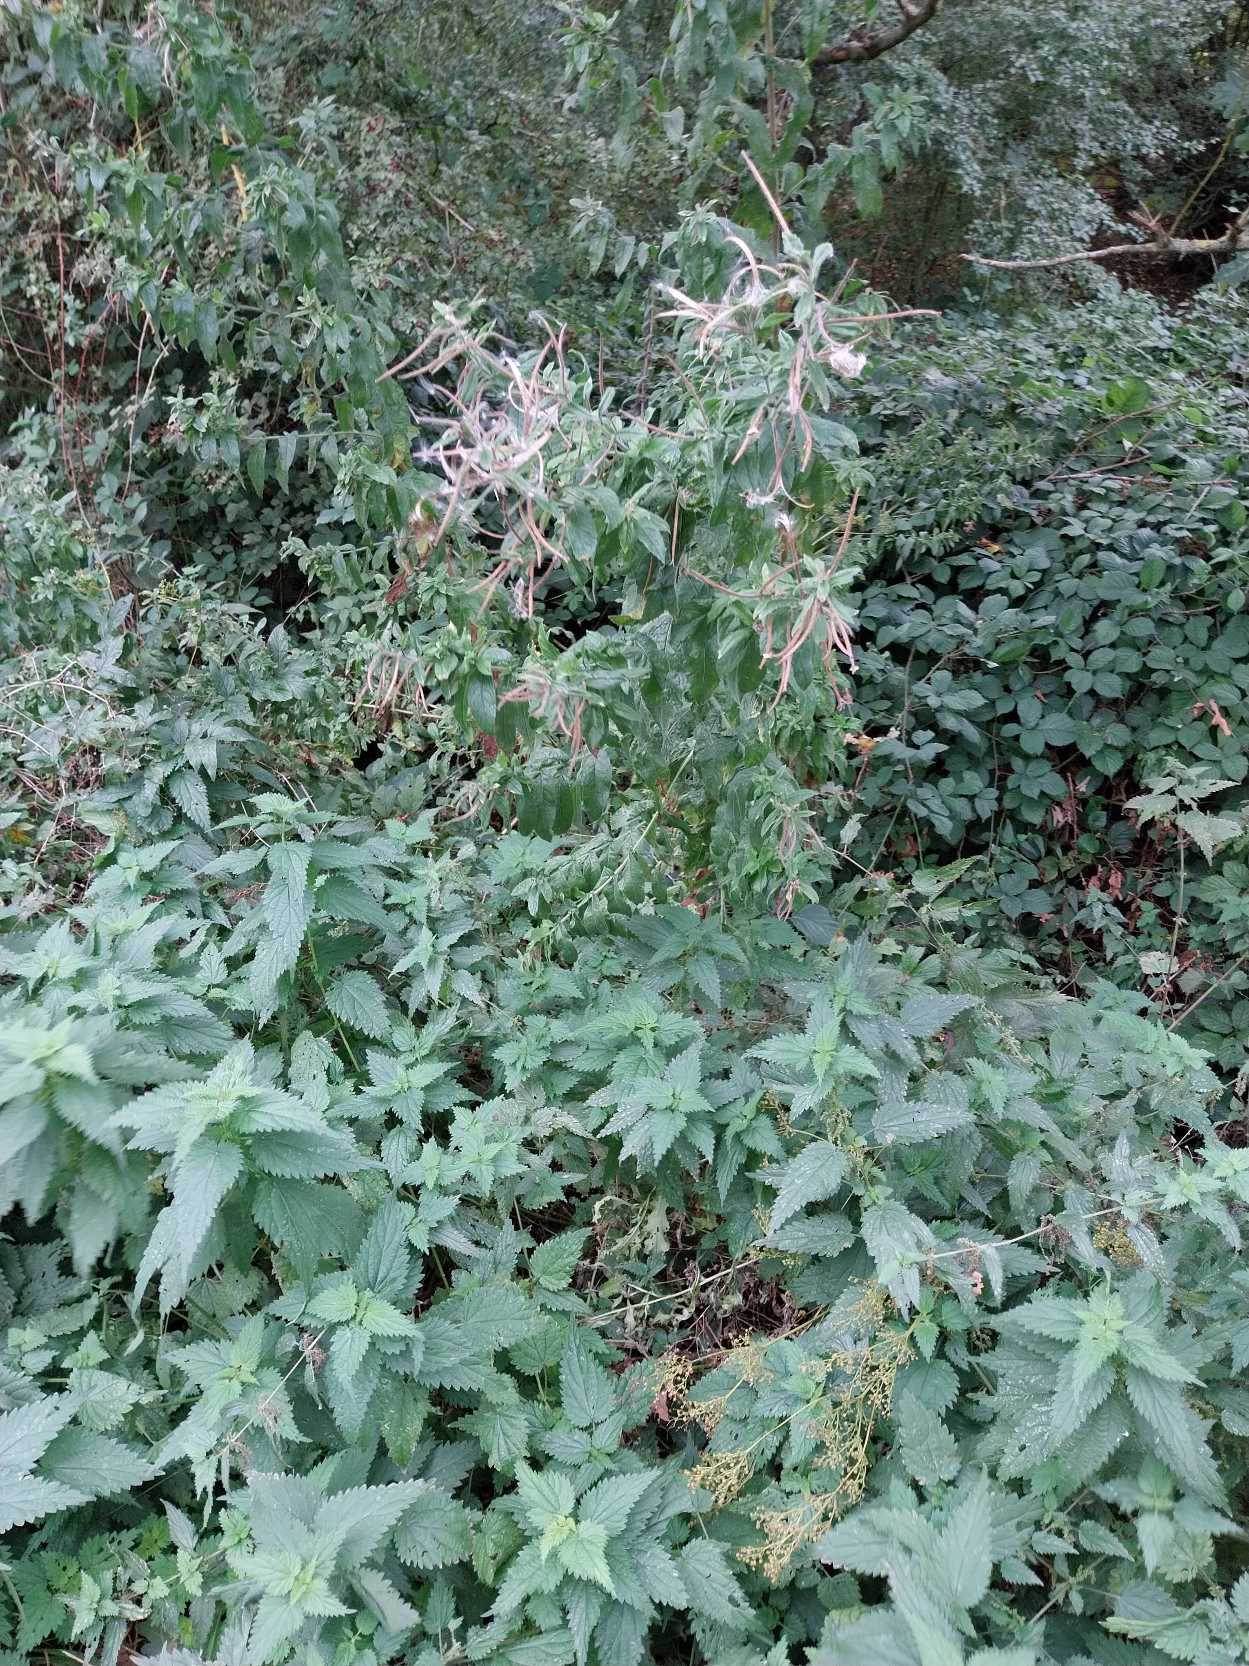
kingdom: Plantae
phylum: Tracheophyta
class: Magnoliopsida
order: Myrtales
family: Onagraceae
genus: Epilobium
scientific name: Epilobium hirsutum
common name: Lådden dueurt
